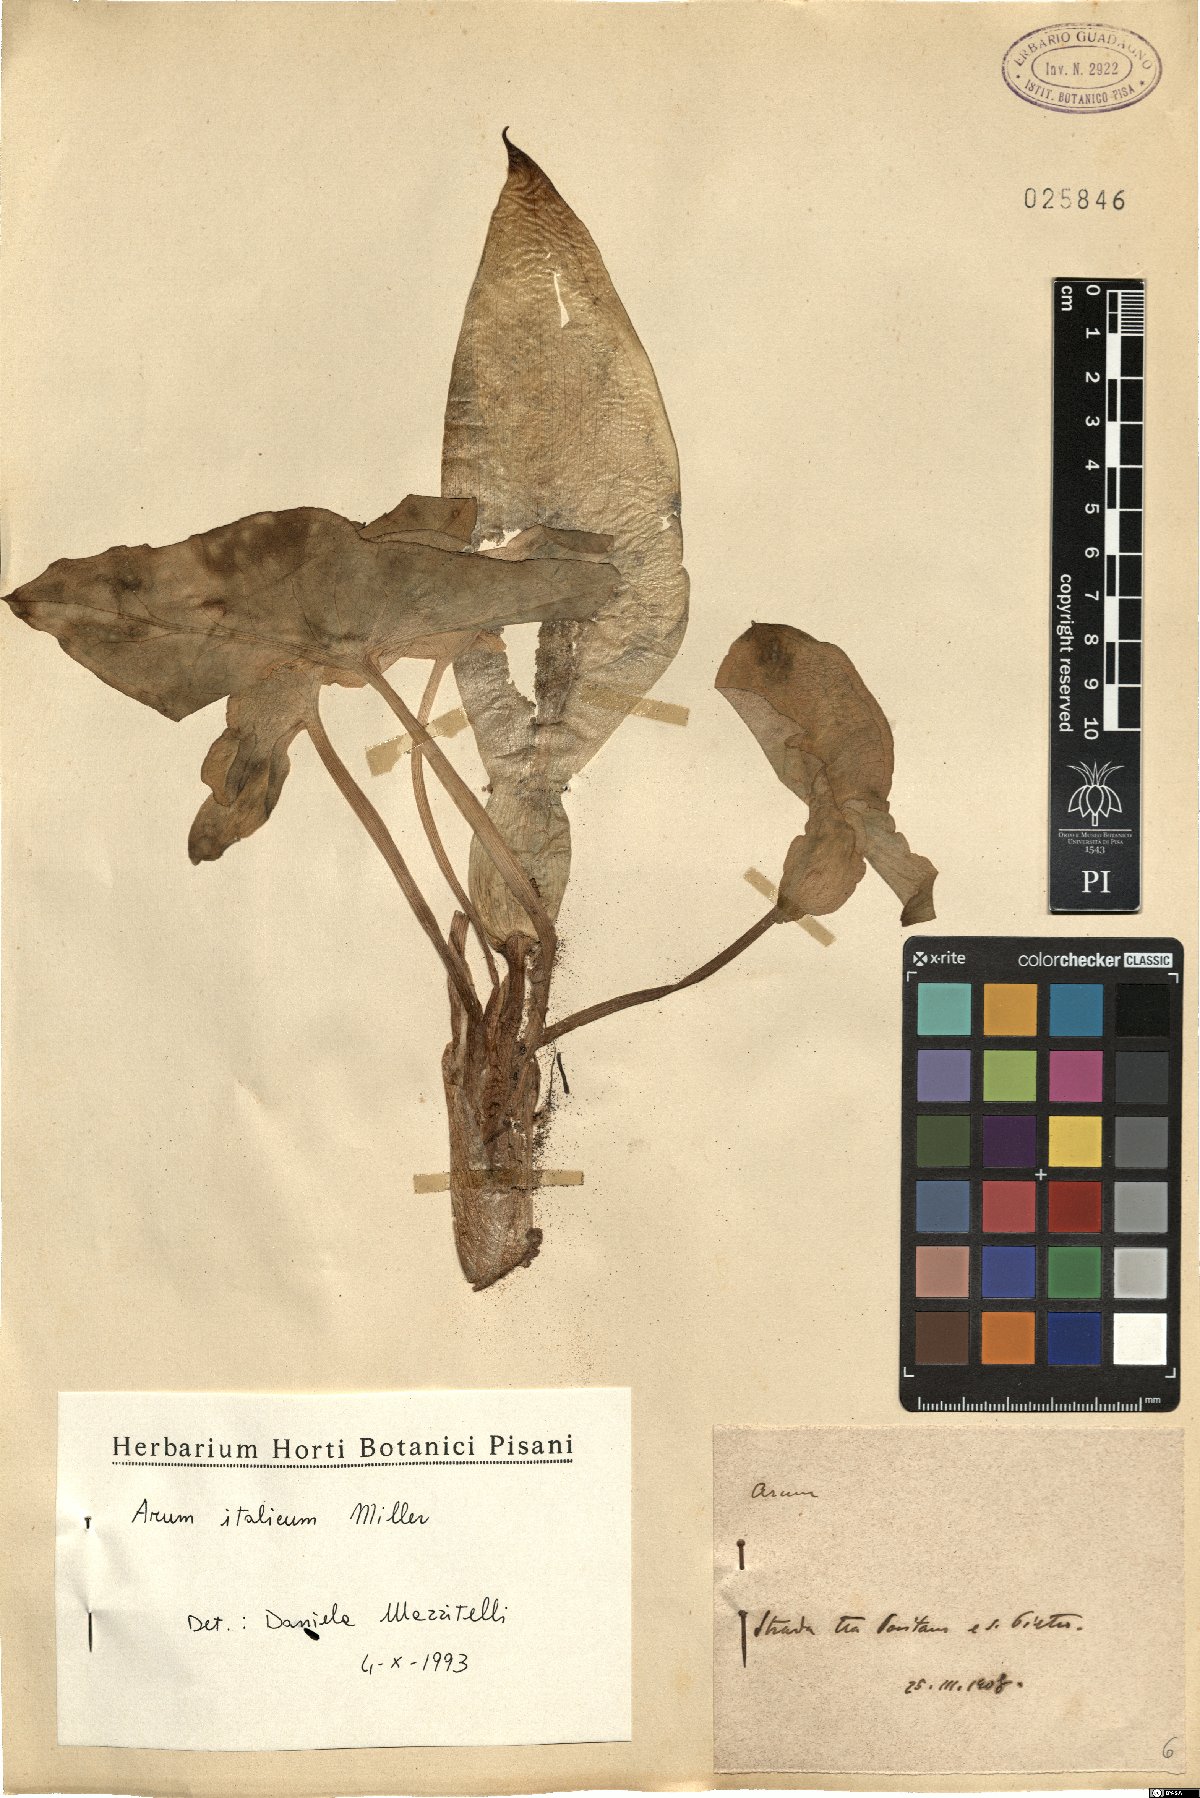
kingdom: Plantae
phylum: Tracheophyta
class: Liliopsida
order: Alismatales
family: Araceae
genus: Arum
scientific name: Arum italicum
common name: Italian lords-and-ladies
